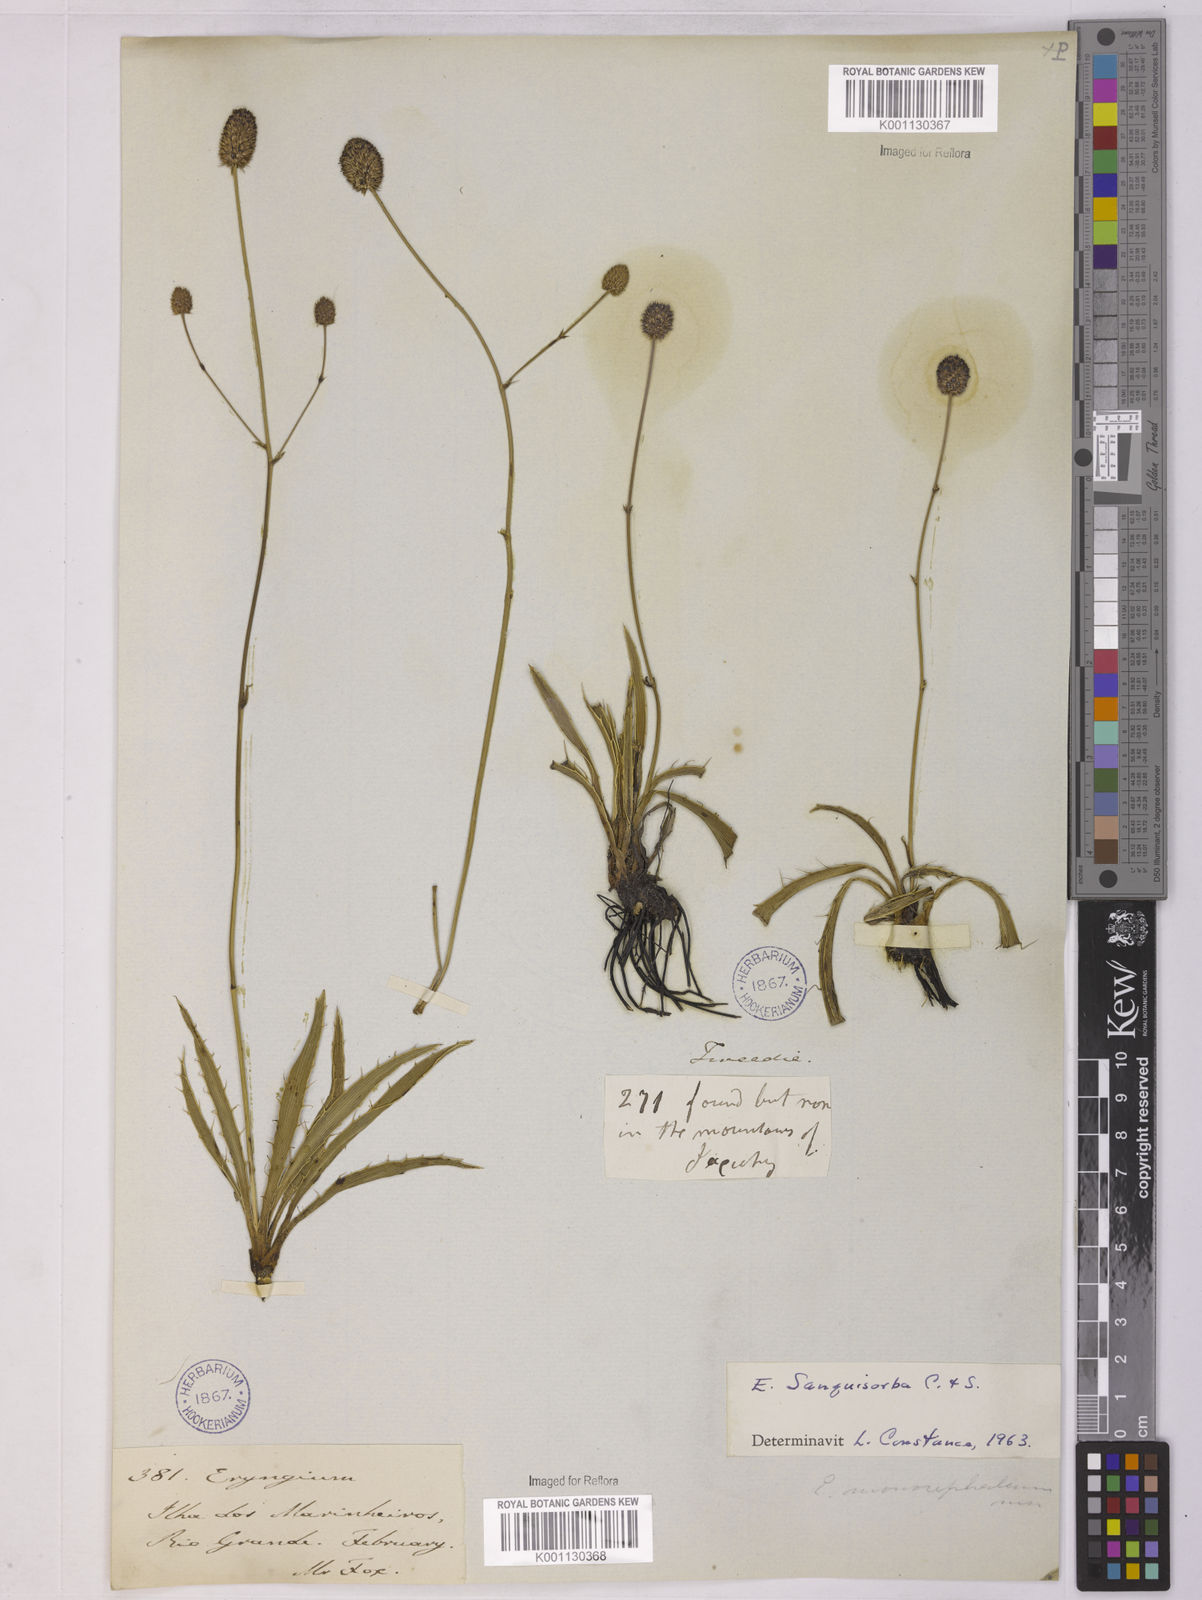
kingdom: Plantae
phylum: Tracheophyta
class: Magnoliopsida
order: Apiales
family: Apiaceae
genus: Eryngium
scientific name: Eryngium sanguisorba
